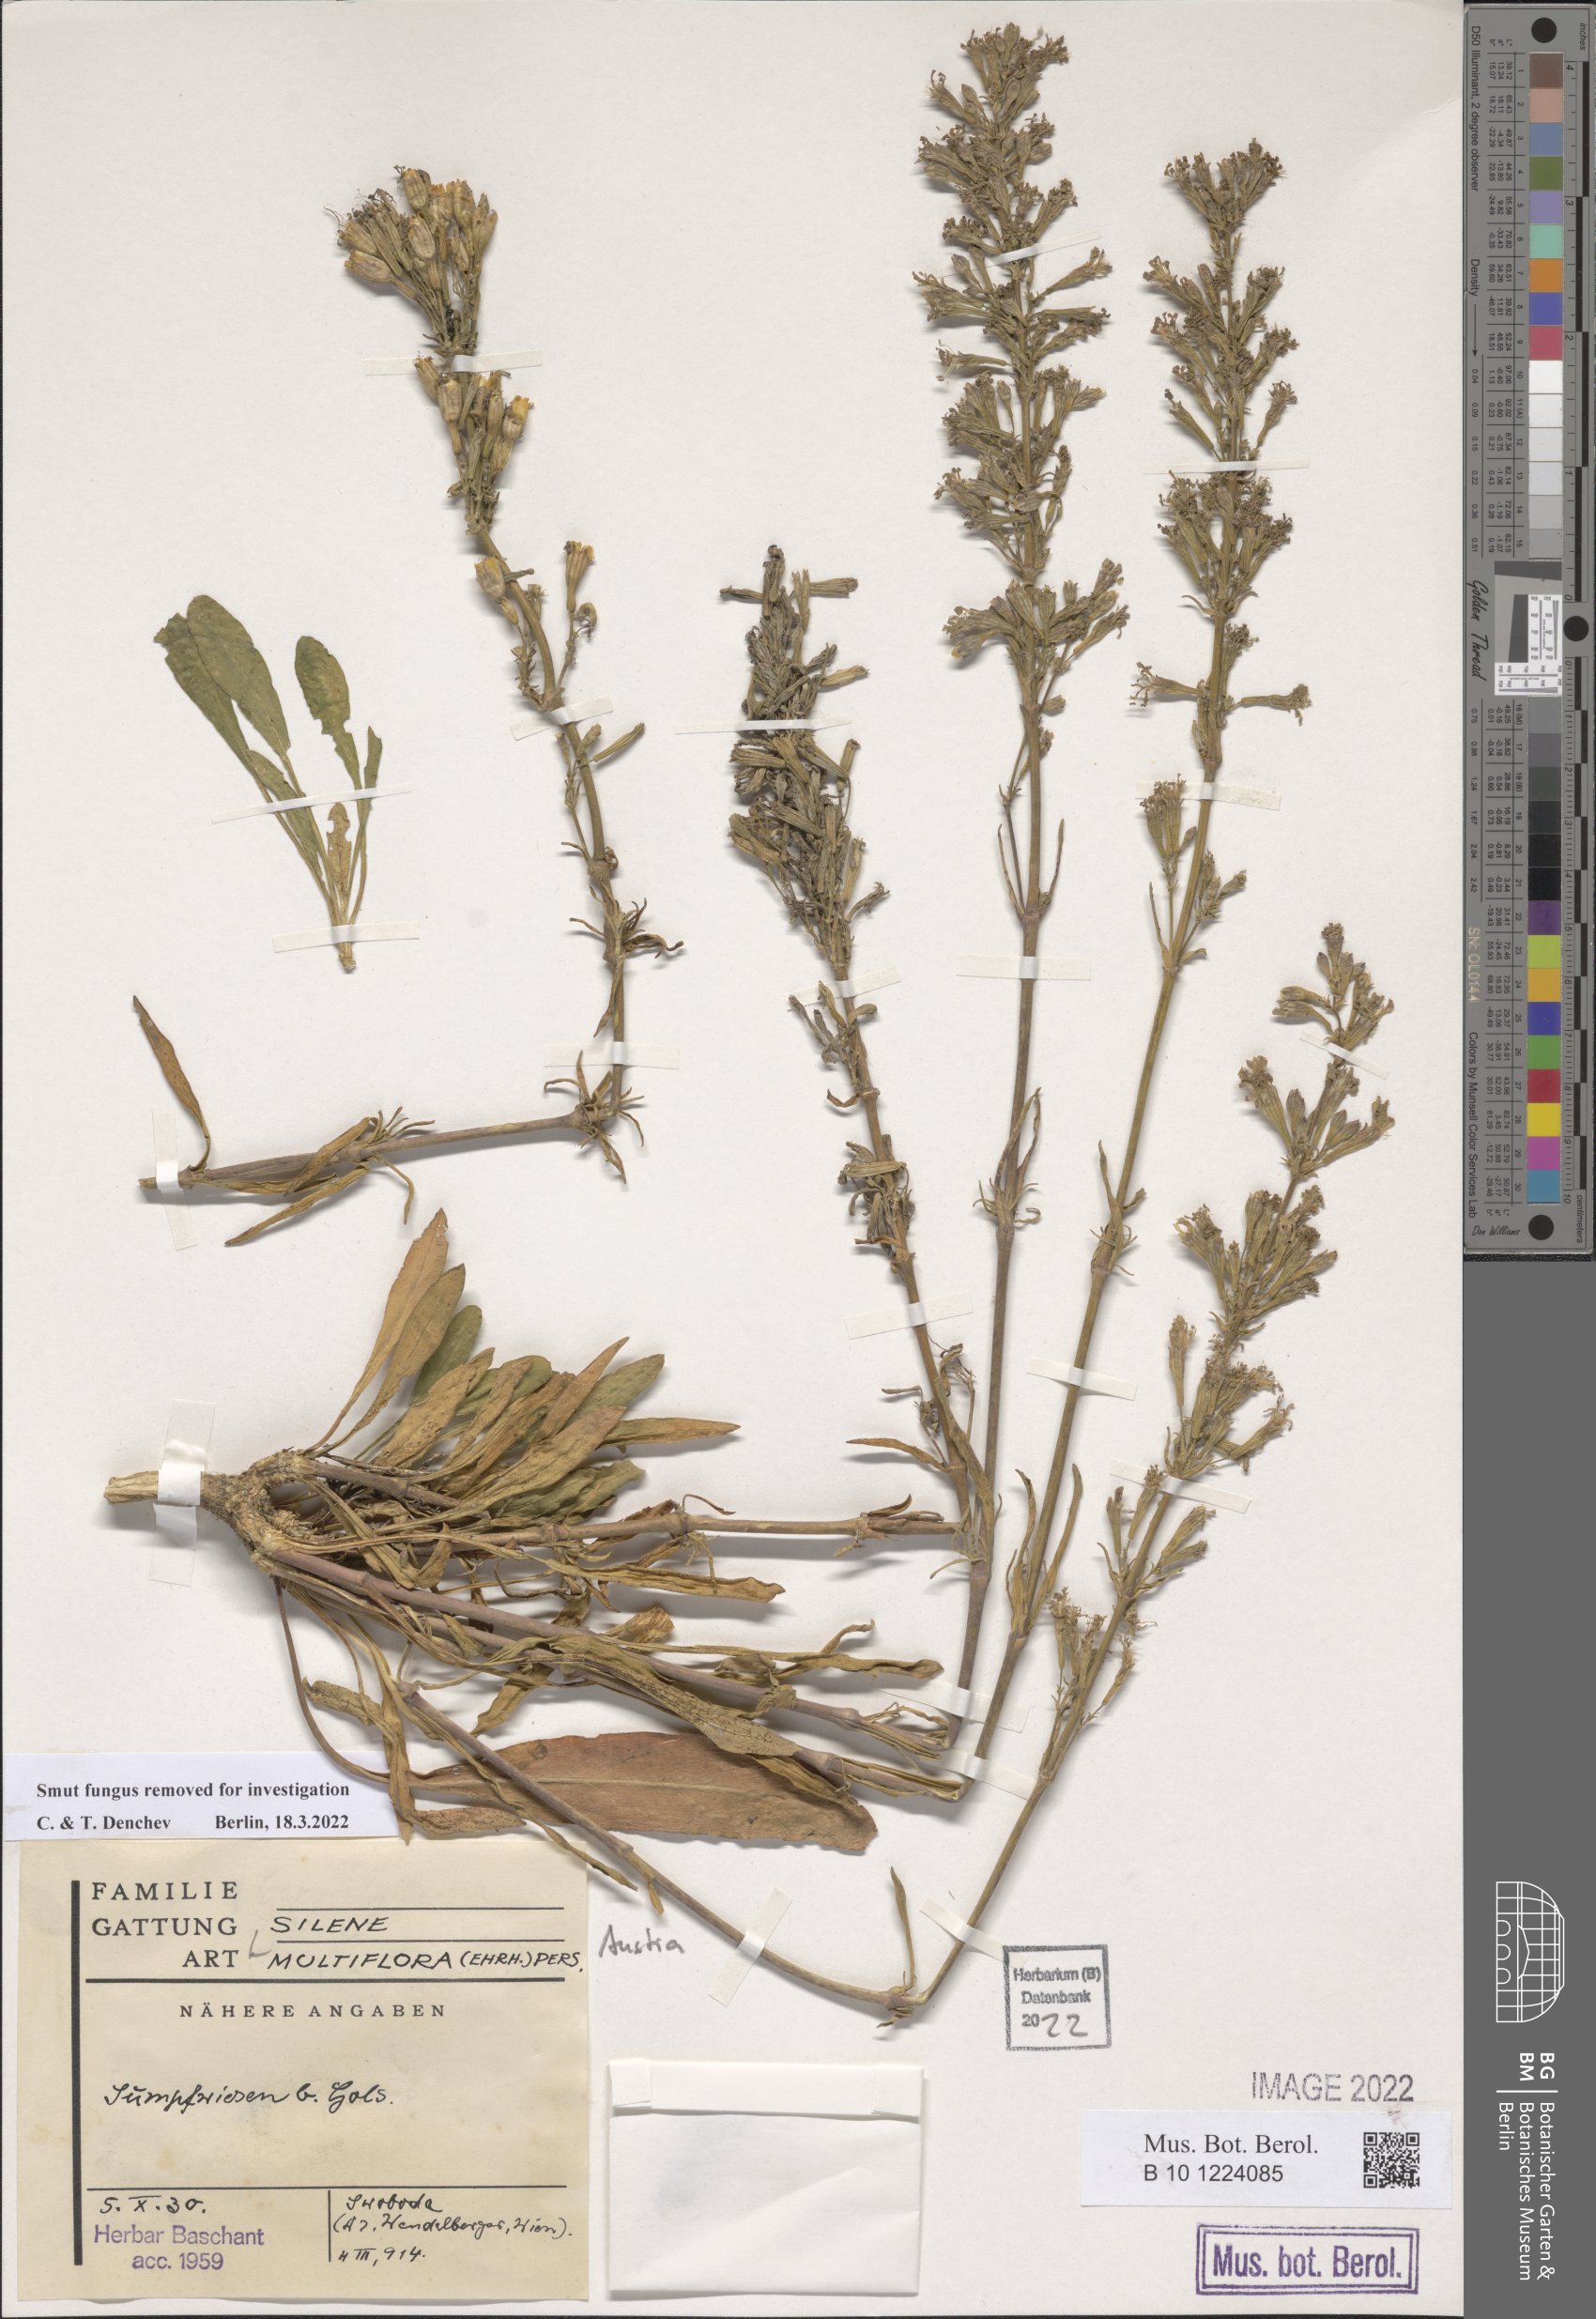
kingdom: Plantae
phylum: Tracheophyta
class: Magnoliopsida
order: Caryophyllales
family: Caryophyllaceae
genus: Silene
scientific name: Silene multiflora
